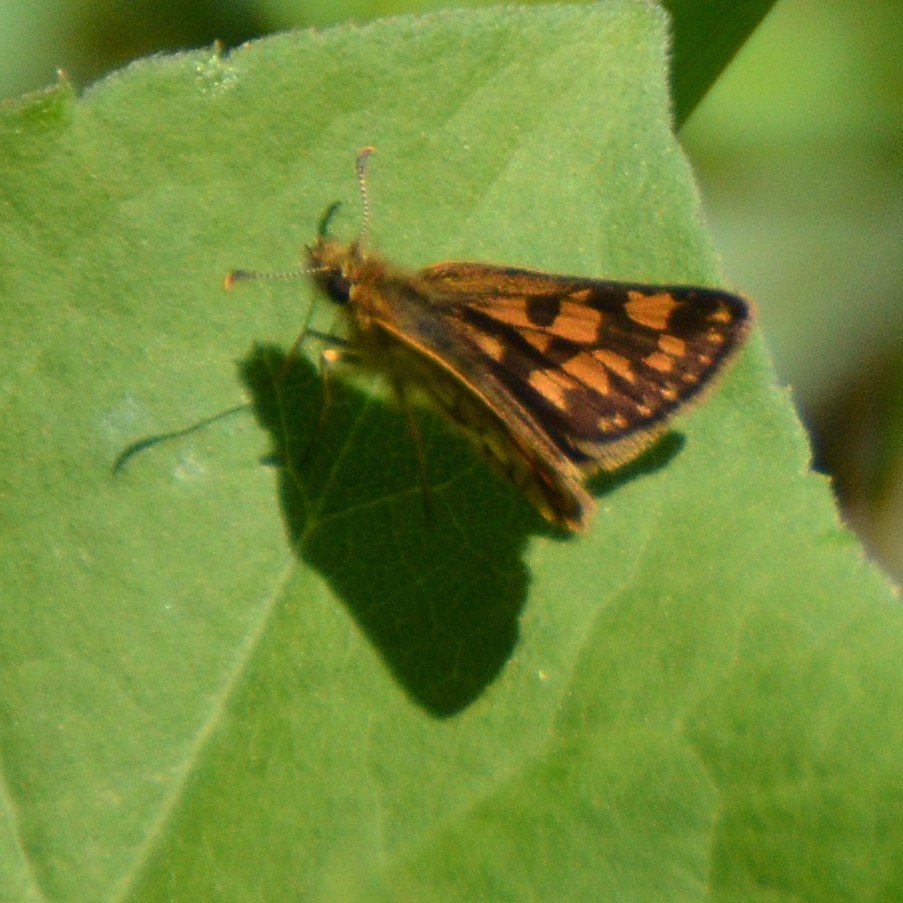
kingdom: Animalia
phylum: Arthropoda
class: Insecta
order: Lepidoptera
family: Hesperiidae
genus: Carterocephalus
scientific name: Carterocephalus palaemon
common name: Chequered Skipper
